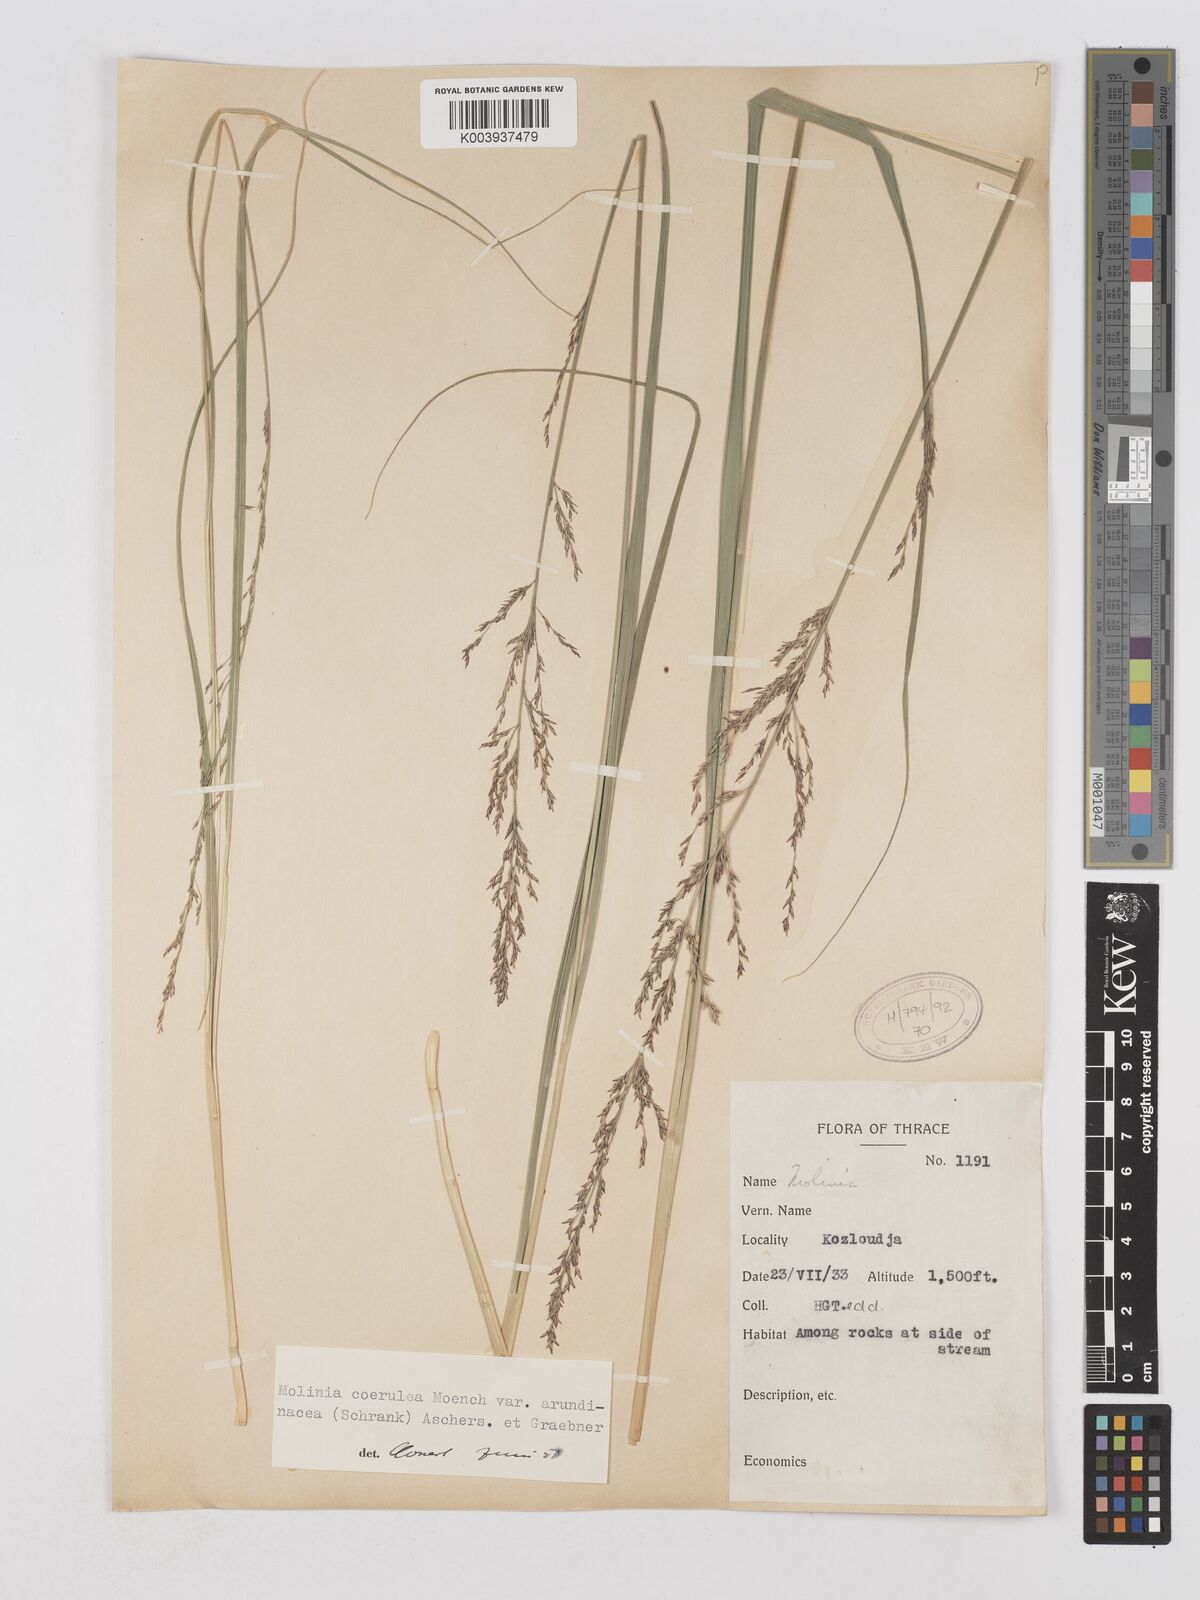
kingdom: Plantae
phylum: Tracheophyta
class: Liliopsida
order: Poales
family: Poaceae
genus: Molinia
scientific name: Molinia caerulea
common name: Purple moor-grass
